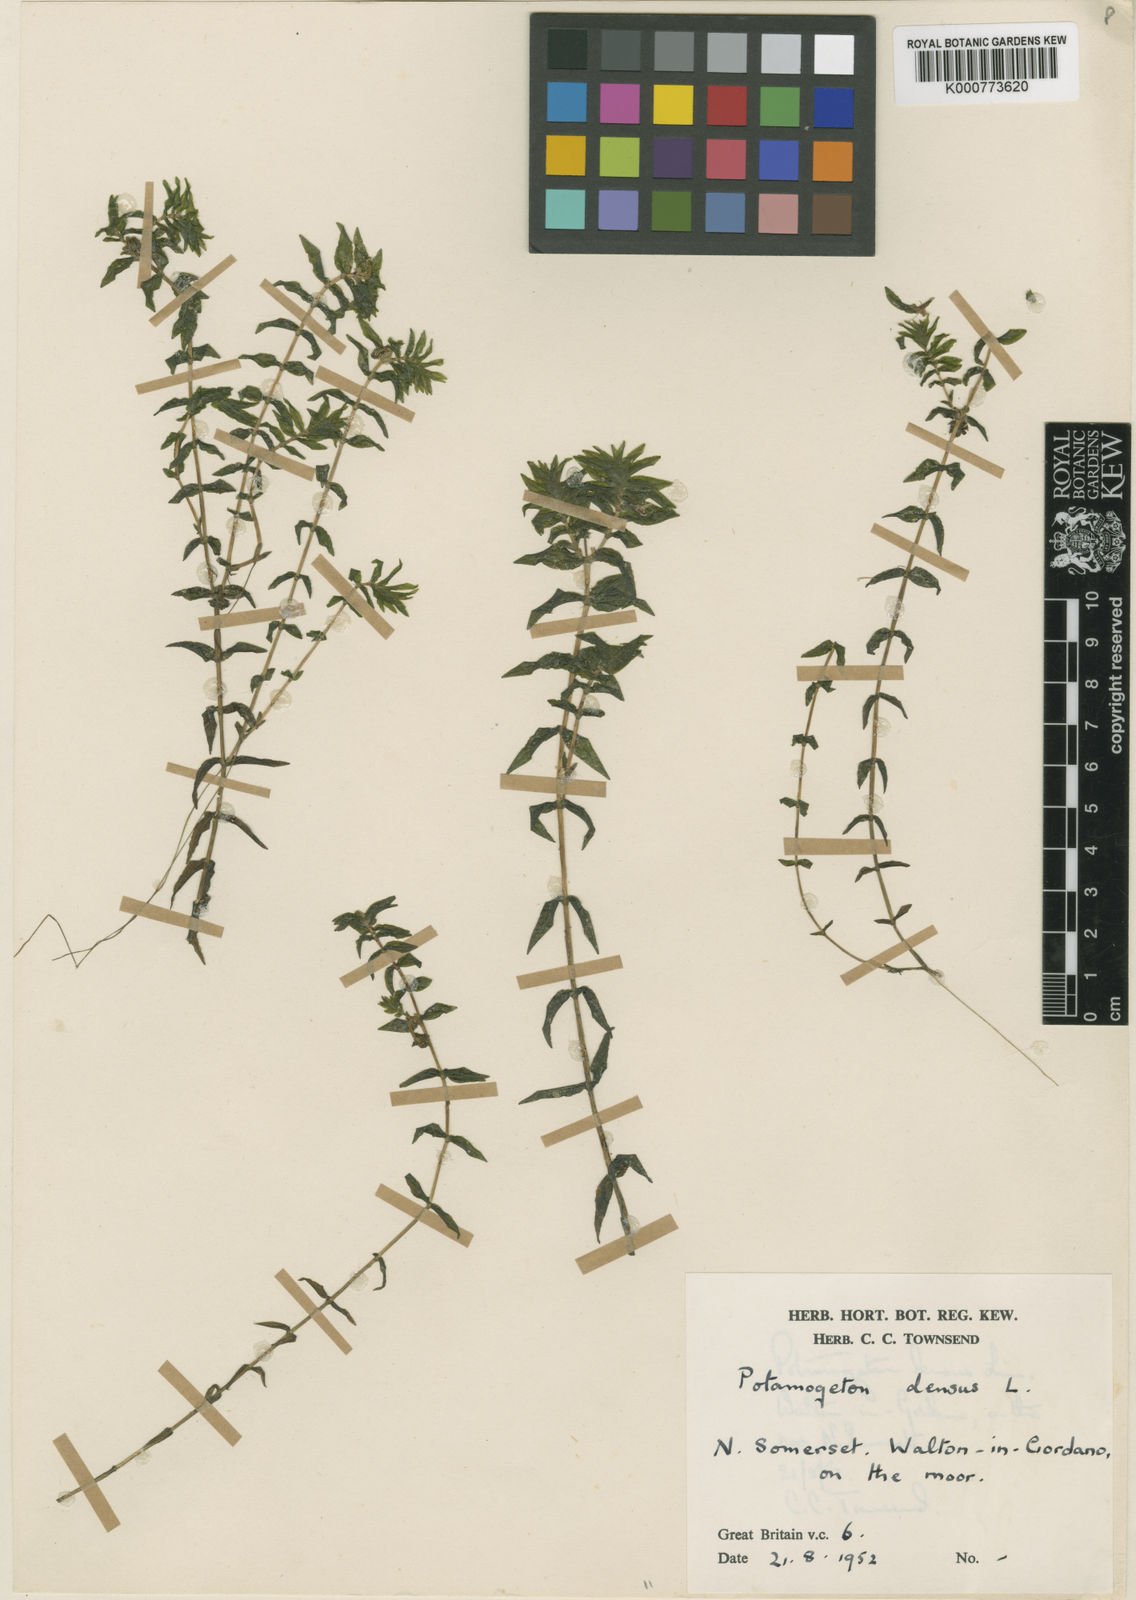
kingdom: Plantae
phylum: Tracheophyta
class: Liliopsida
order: Alismatales
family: Potamogetonaceae
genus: Groenlandia
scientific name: Groenlandia densa
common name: Opposite-leaved pondweed
